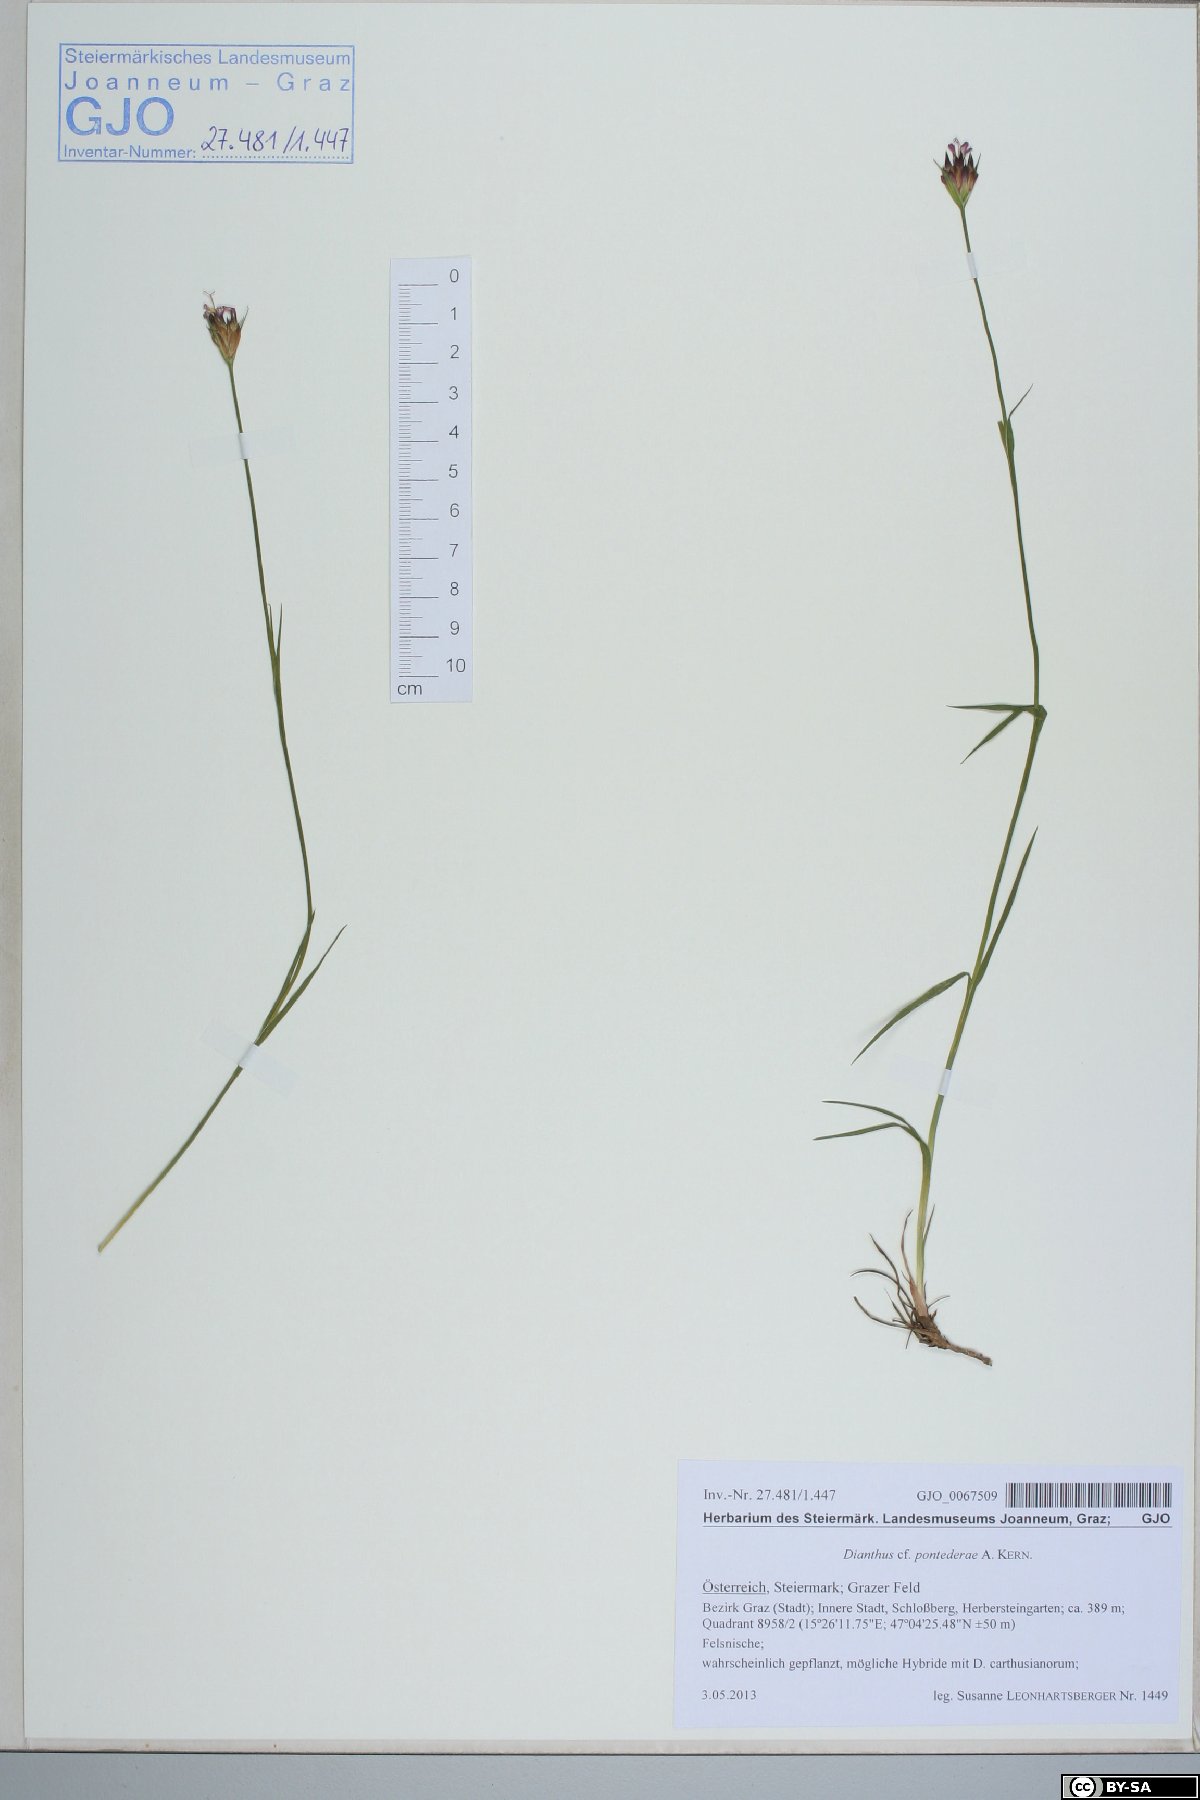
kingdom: Plantae
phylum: Tracheophyta
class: Magnoliopsida
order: Caryophyllales
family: Caryophyllaceae
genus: Dianthus
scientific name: Dianthus pontederae
